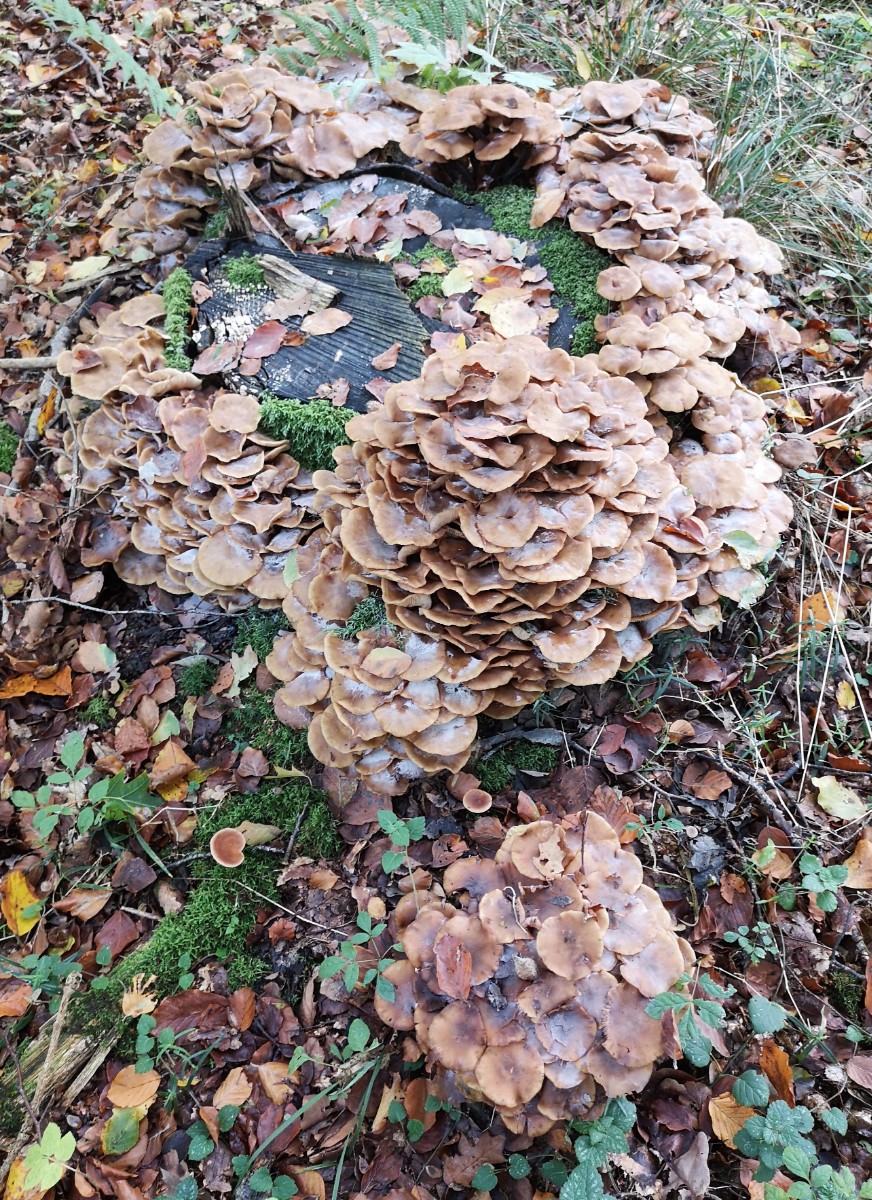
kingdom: Fungi
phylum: Basidiomycota
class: Agaricomycetes
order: Agaricales
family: Physalacriaceae
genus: Armillaria
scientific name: Armillaria mellea
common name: ægte honningsvamp
